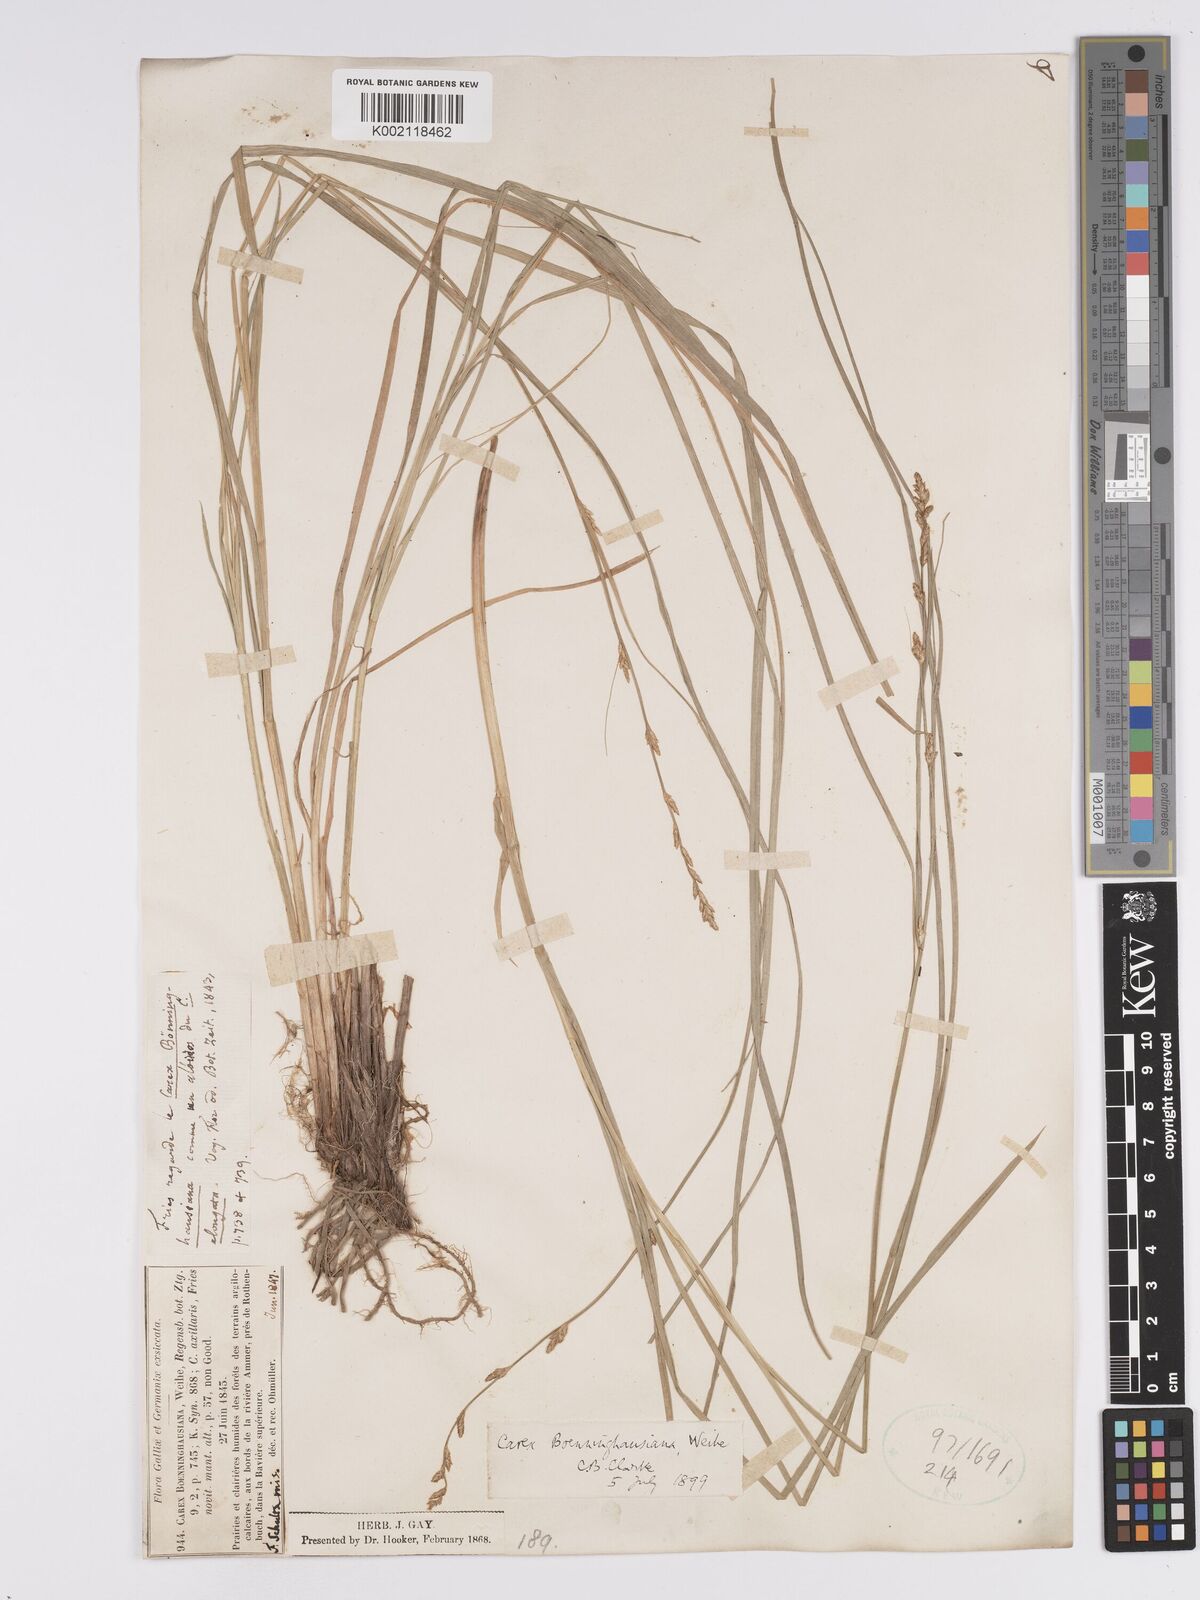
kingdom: Plantae
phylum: Tracheophyta
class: Liliopsida
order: Poales
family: Cyperaceae
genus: Carex
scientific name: Carex boenninghausiana
